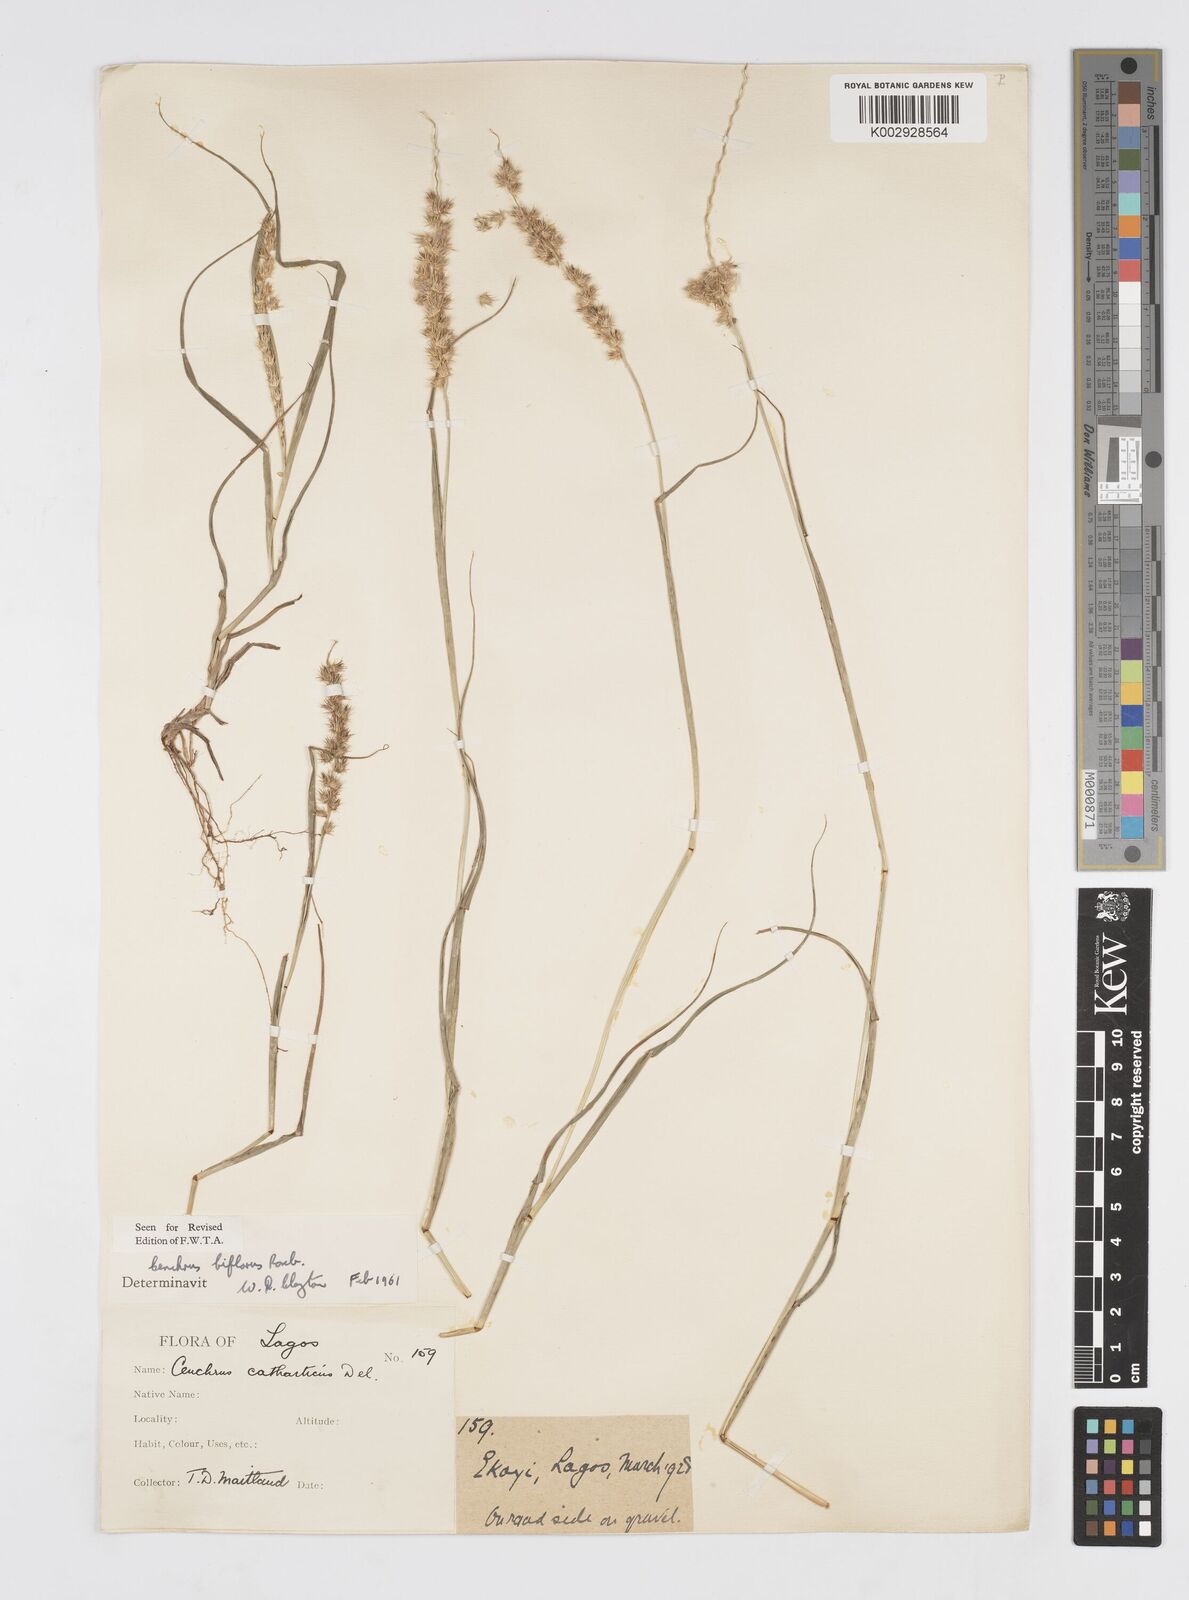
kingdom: Plantae
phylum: Tracheophyta
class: Liliopsida
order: Poales
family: Poaceae
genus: Cenchrus
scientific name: Cenchrus biflorus
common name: Indian sandbur
